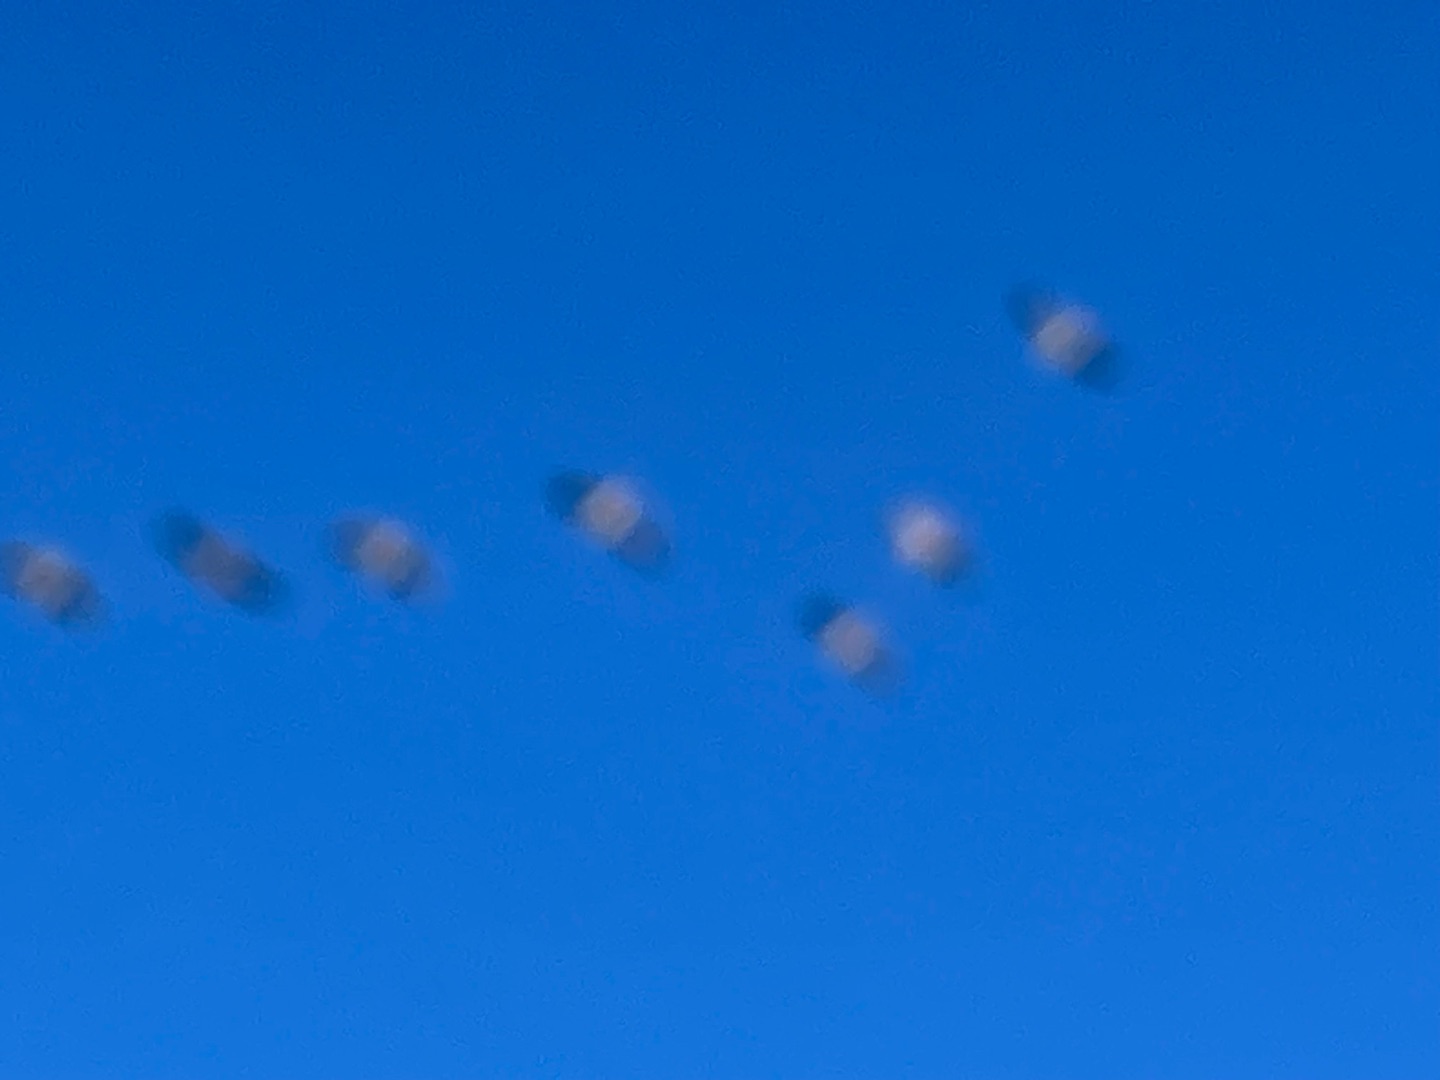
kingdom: Animalia
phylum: Chordata
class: Aves
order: Anseriformes
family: Anatidae
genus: Anser
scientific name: Anser anser
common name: Grågås
